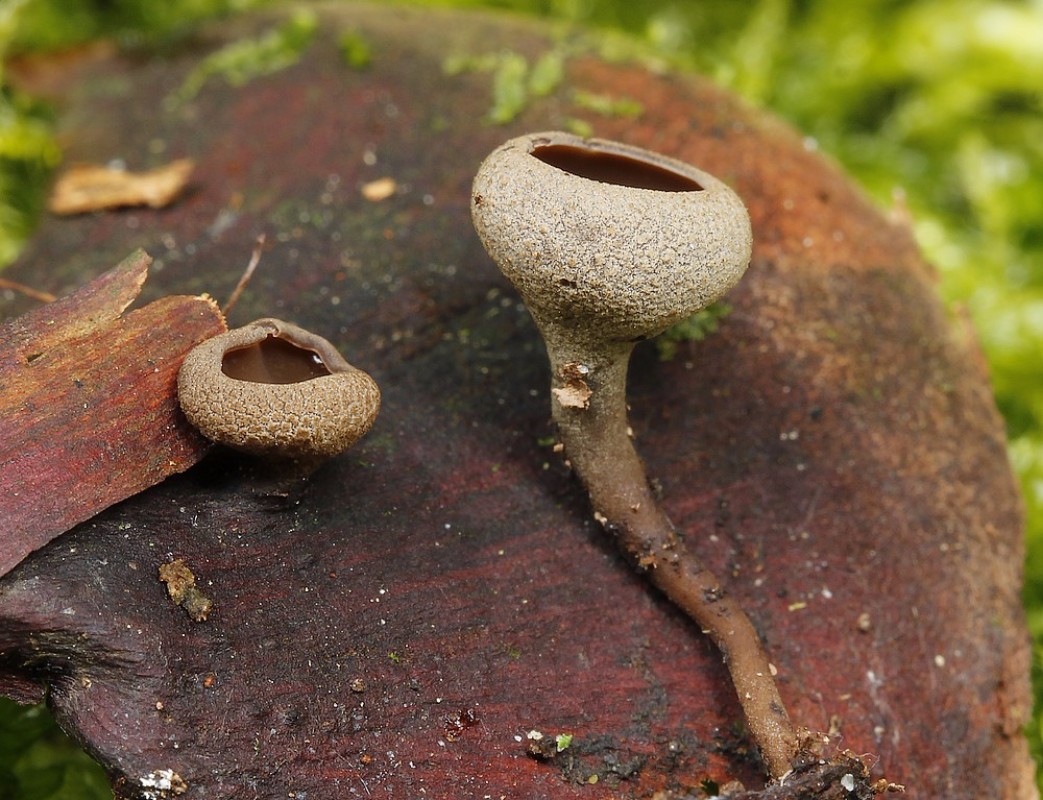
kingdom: Fungi
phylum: Ascomycota
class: Leotiomycetes
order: Helotiales
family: Sclerotiniaceae
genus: Ciboria
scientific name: Ciboria rufofusca
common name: kogleskæl-knoldskive
